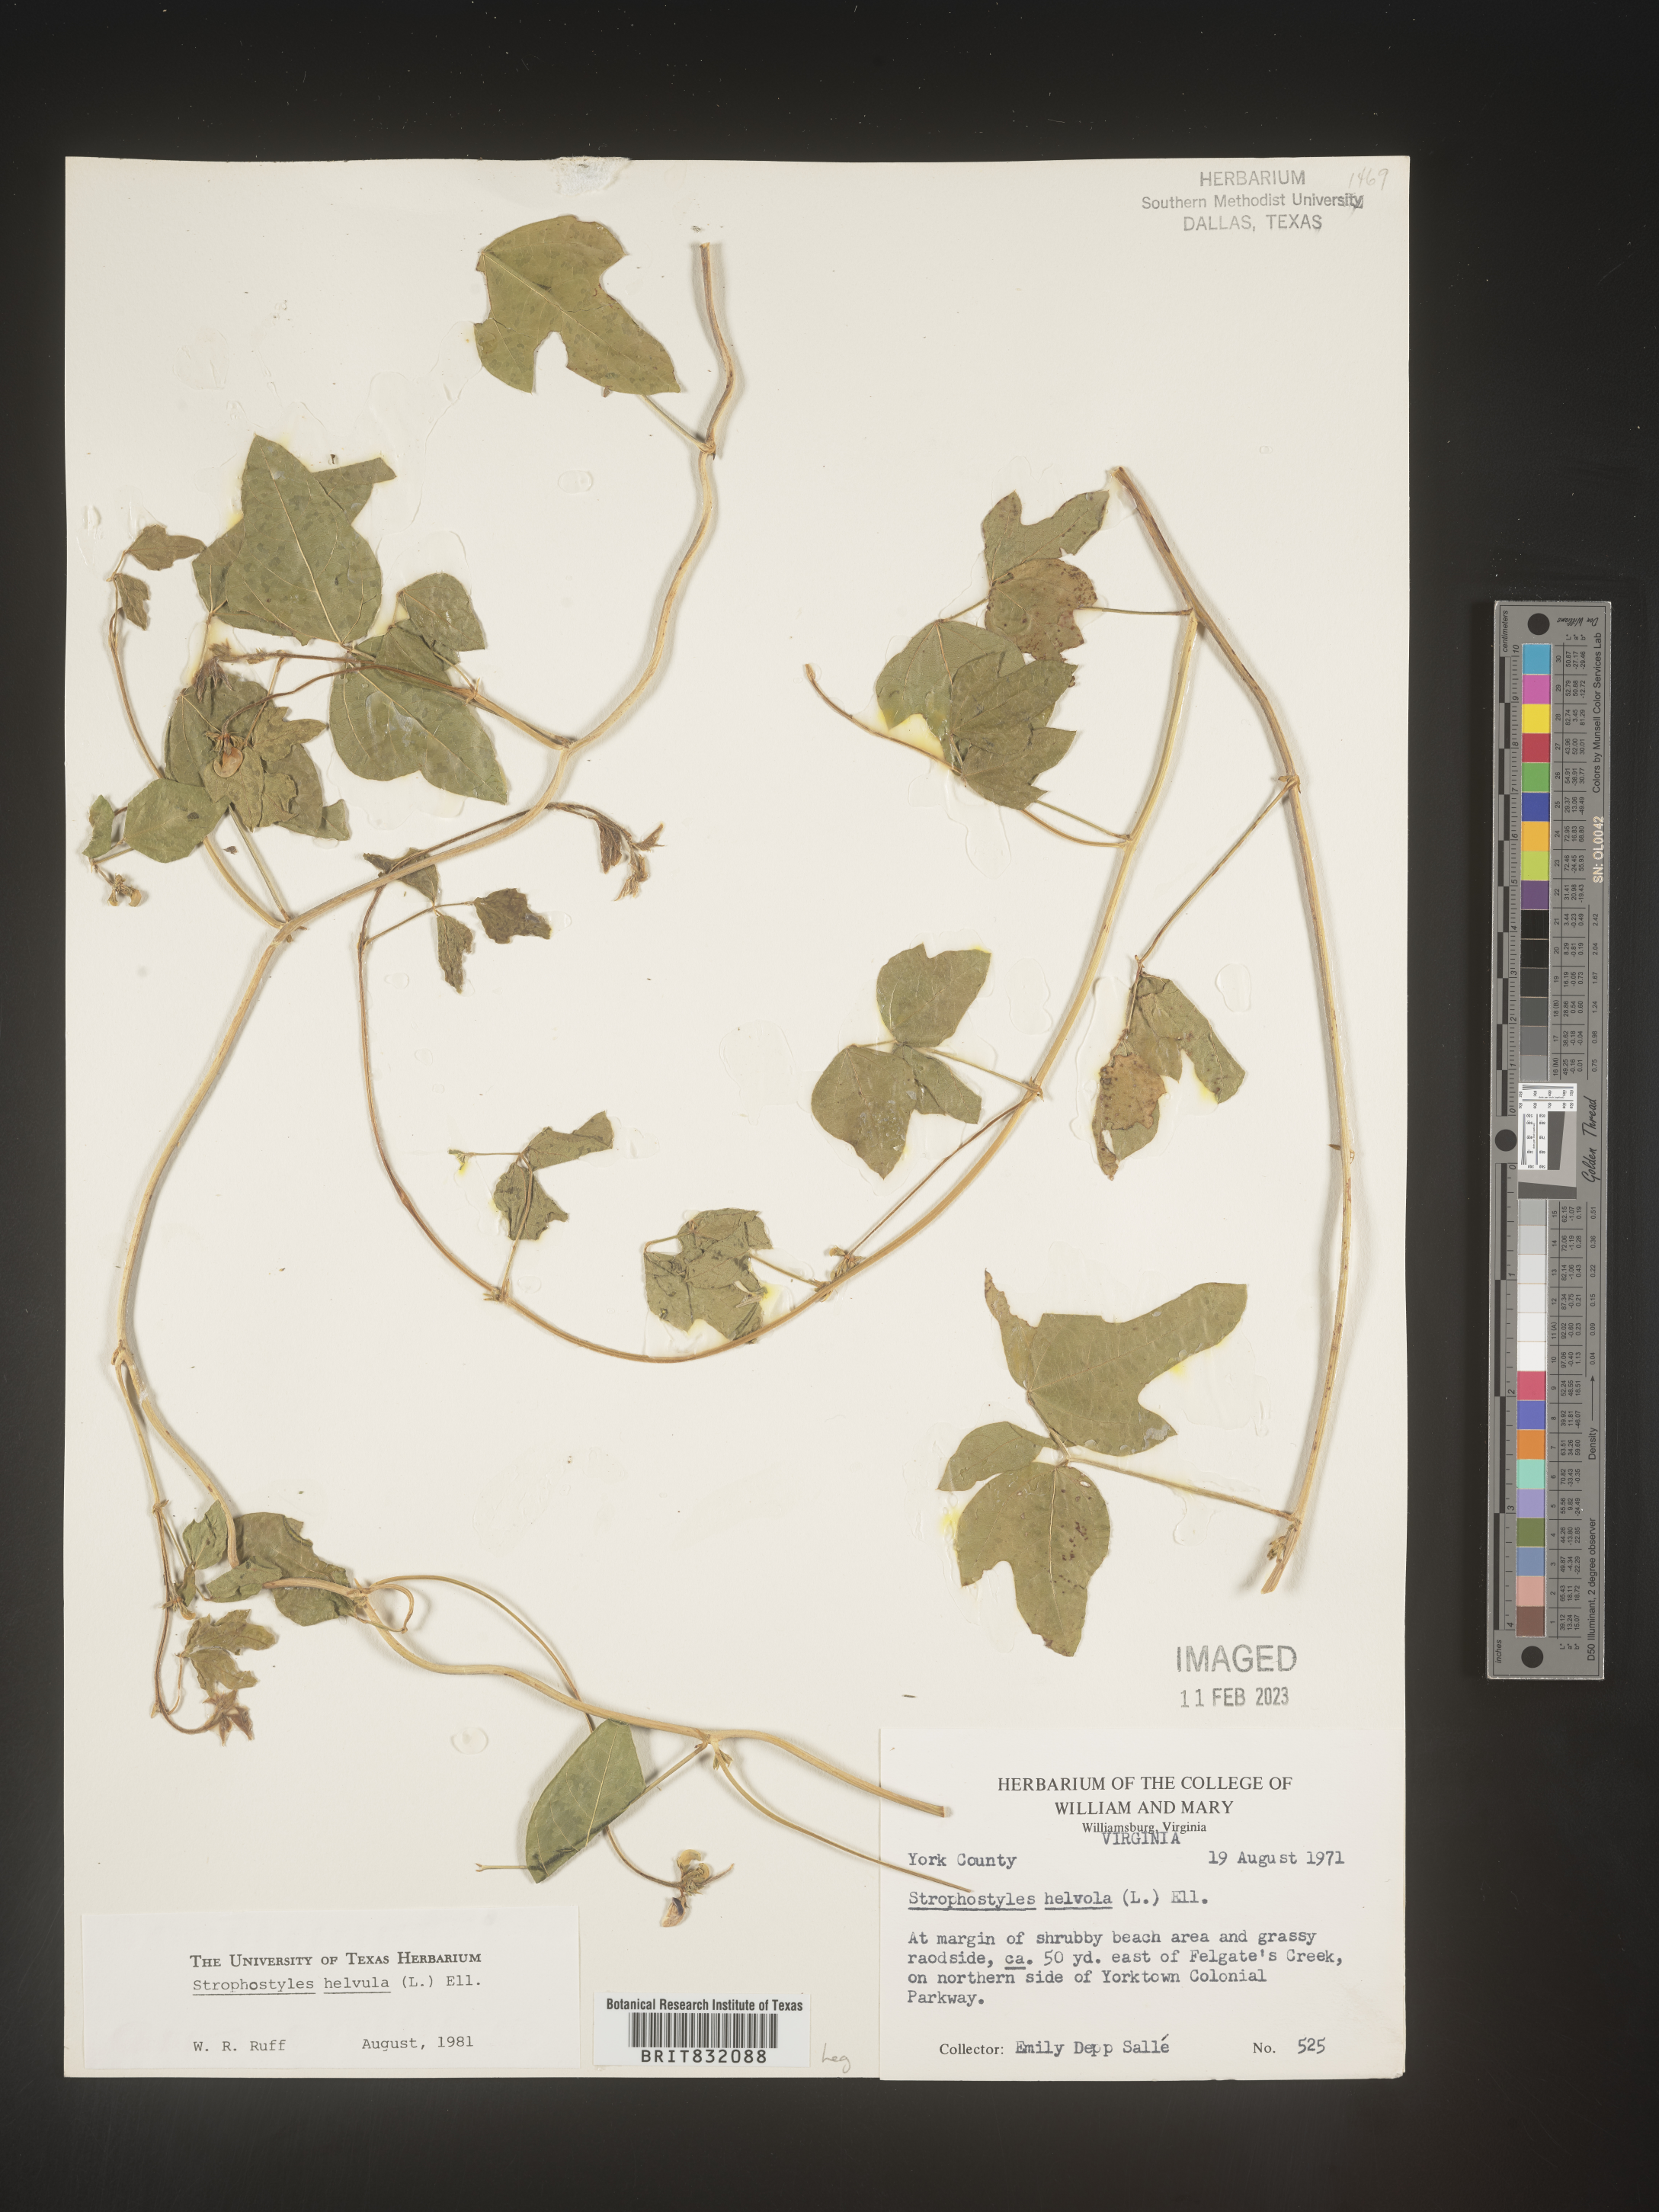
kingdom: Plantae
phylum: Tracheophyta
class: Magnoliopsida
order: Fabales
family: Fabaceae
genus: Strophostyles
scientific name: Strophostyles helvola
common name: Trailing wild bean
